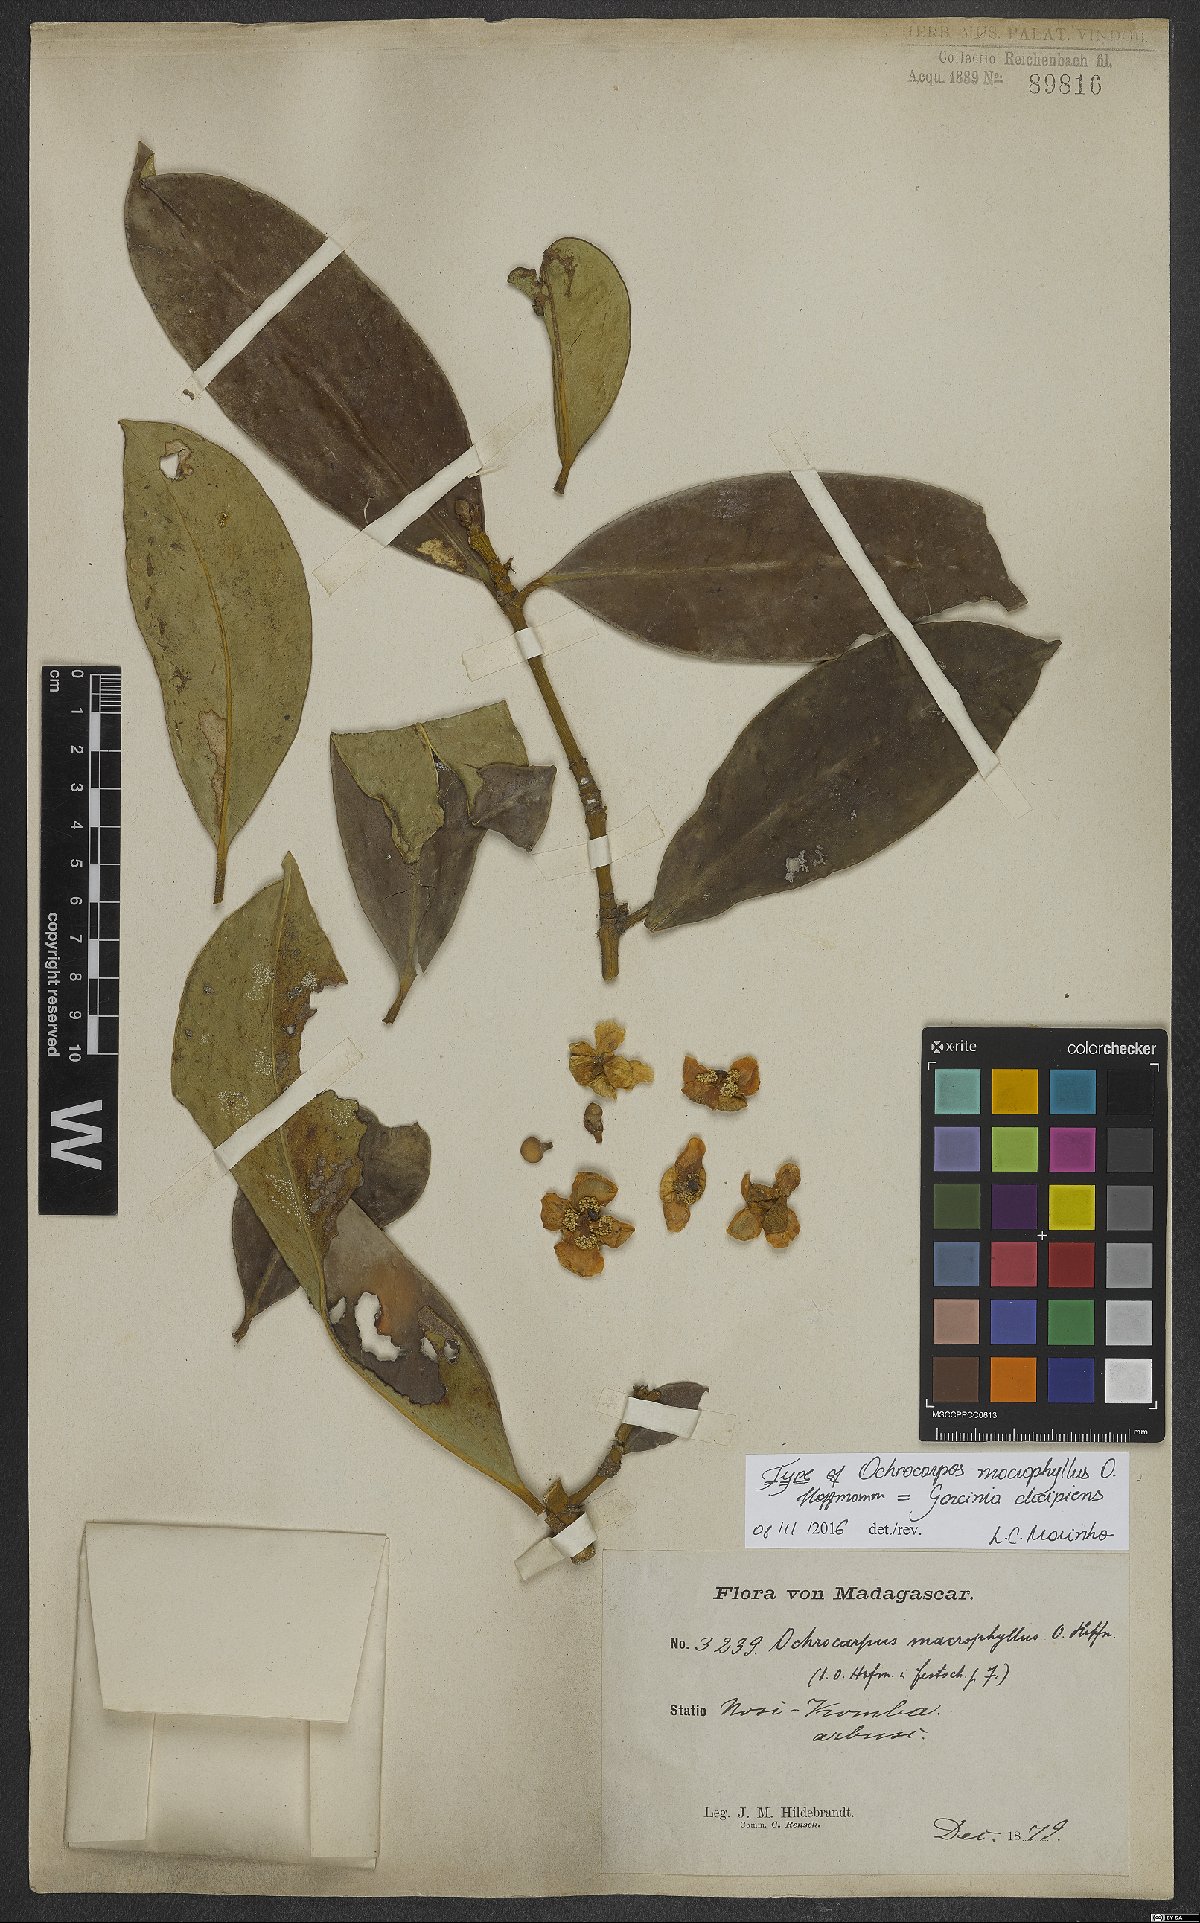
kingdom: Plantae
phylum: Tracheophyta
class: Magnoliopsida
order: Malpighiales
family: Clusiaceae
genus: Garcinia
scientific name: Garcinia decipiens
